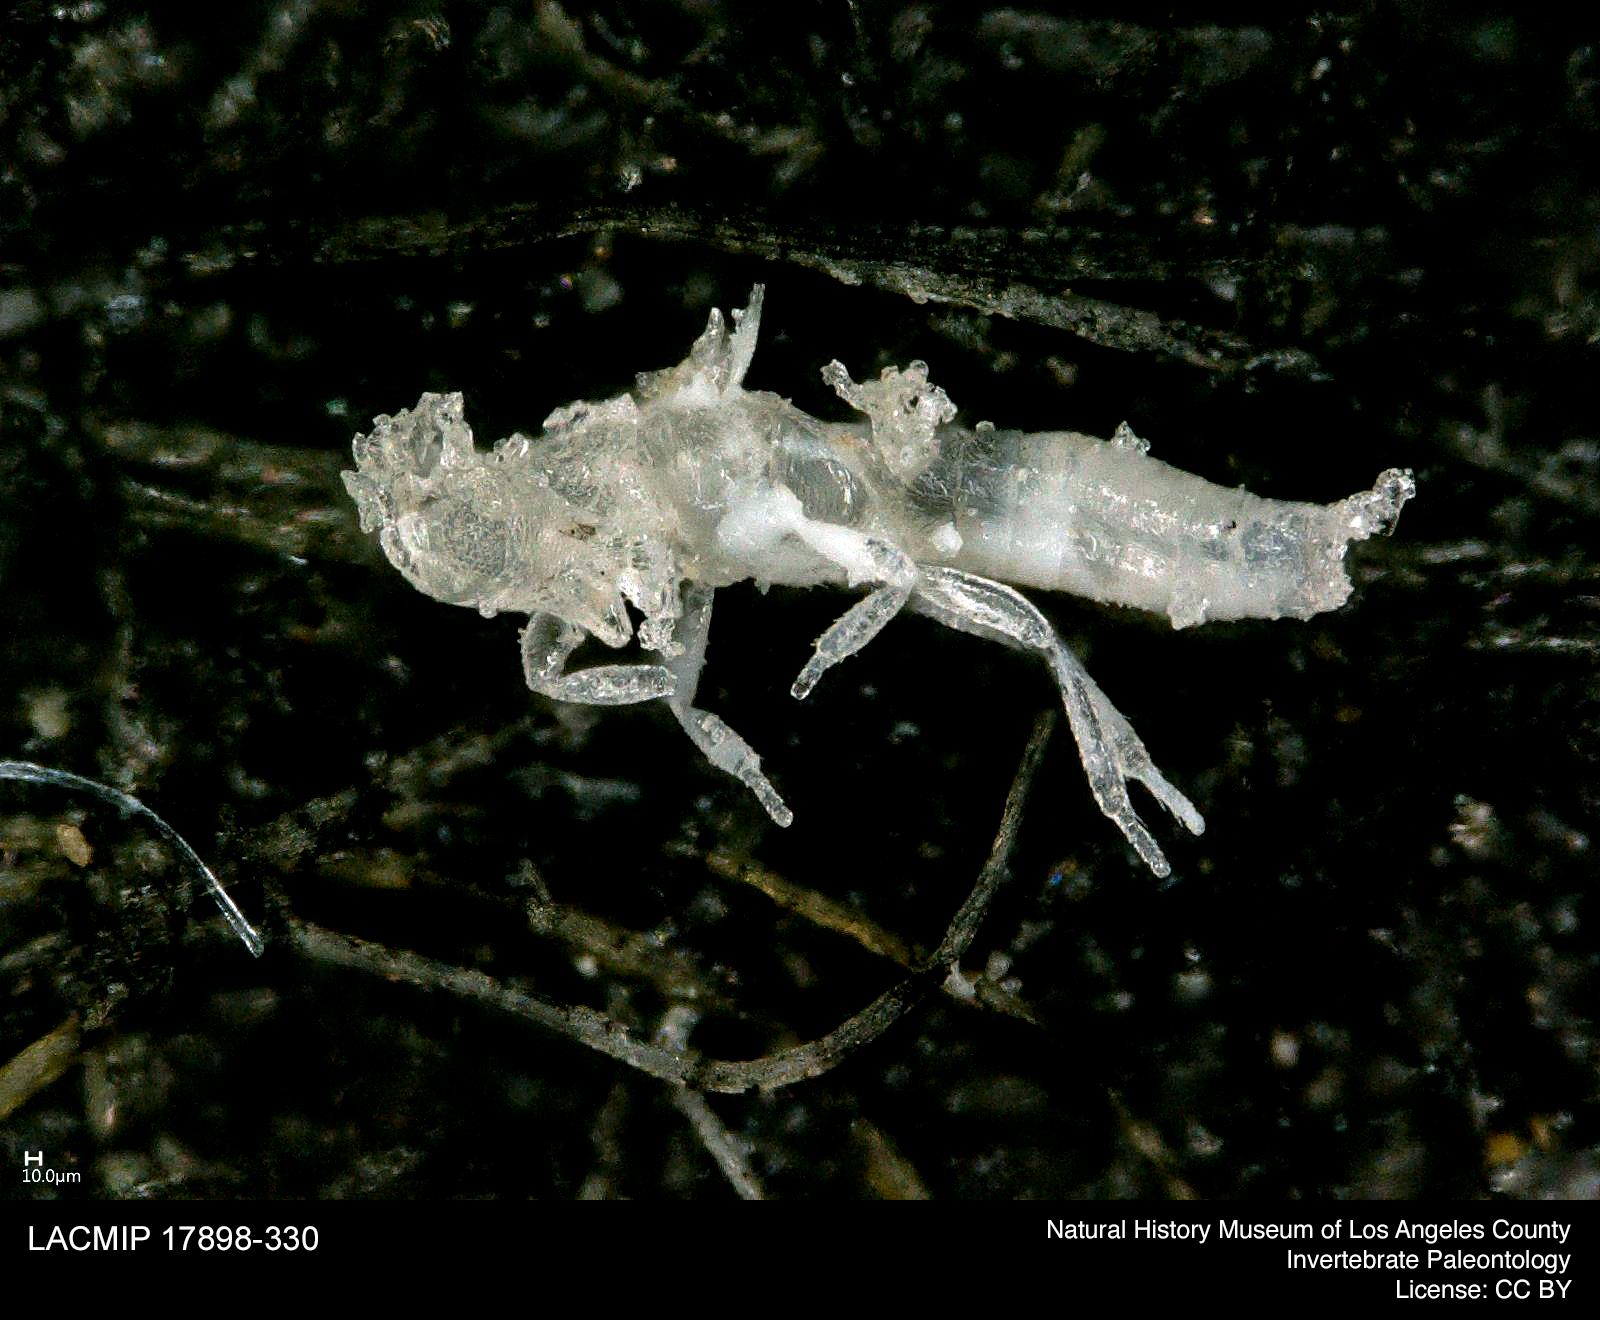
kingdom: Animalia
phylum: Arthropoda
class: Insecta
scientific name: Insecta
